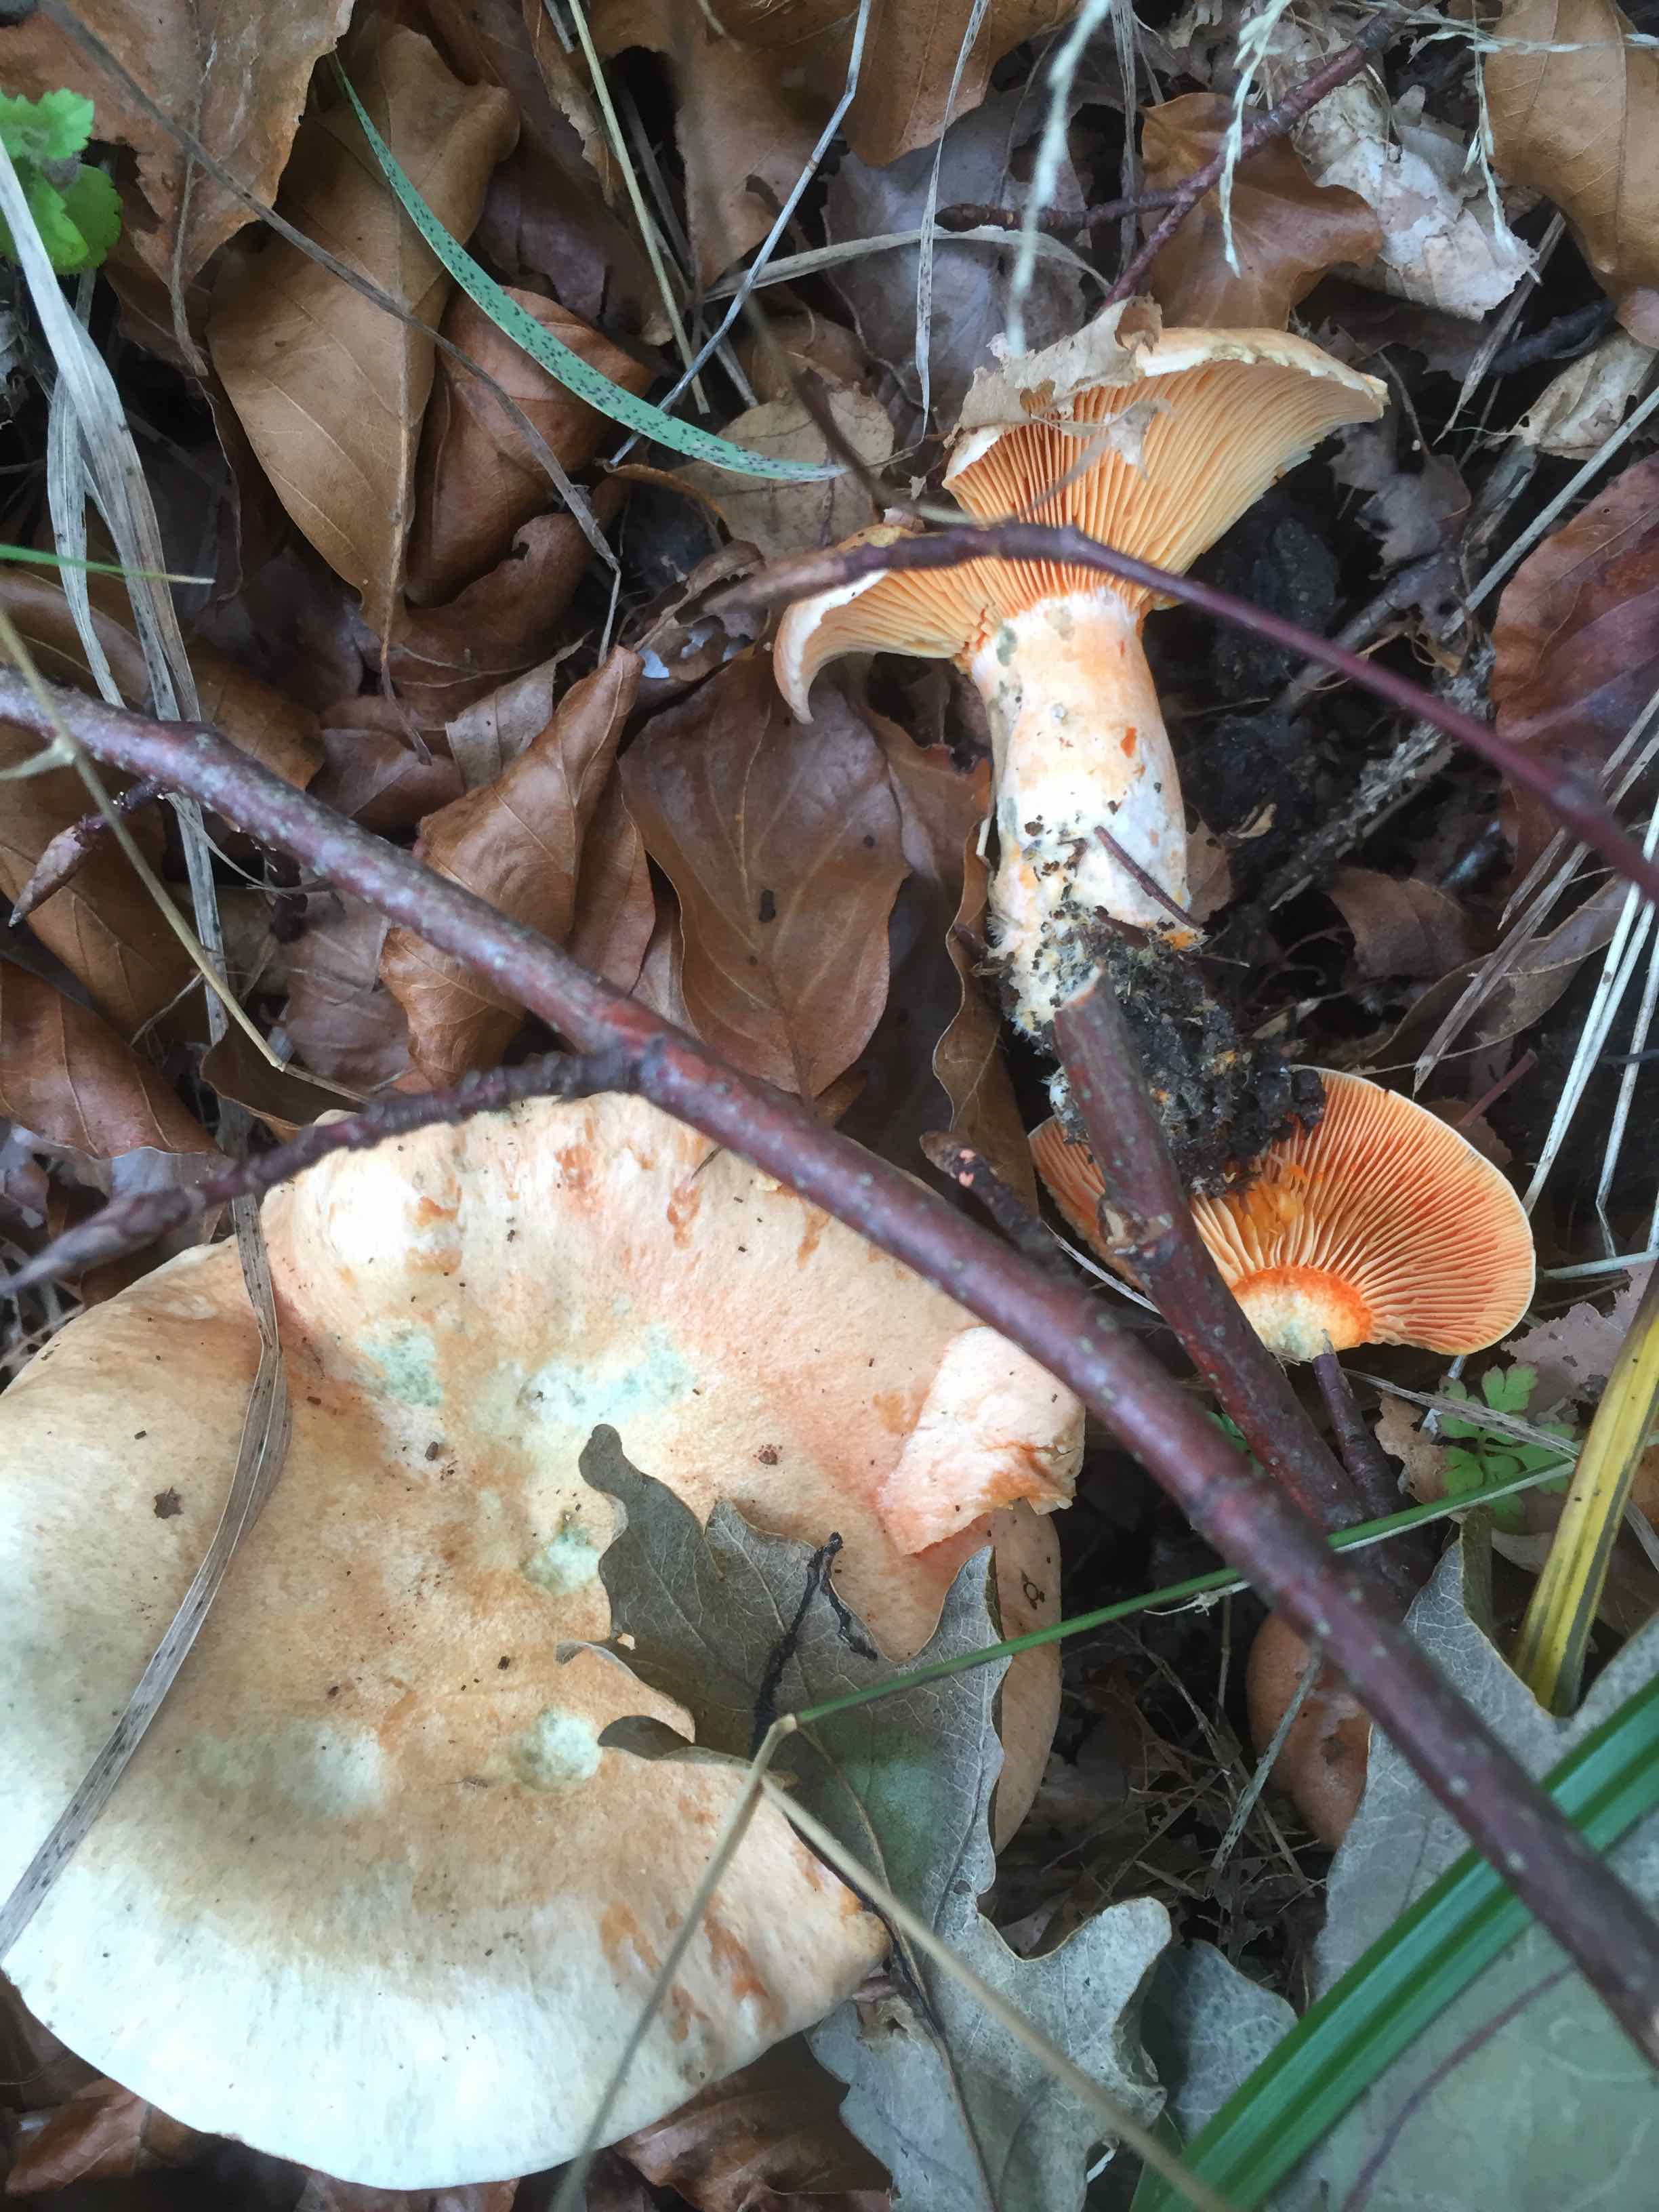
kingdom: Fungi
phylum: Basidiomycota
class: Agaricomycetes
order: Russulales
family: Russulaceae
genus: Lactarius
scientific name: Lactarius deterrimus
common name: gran-mælkehat
